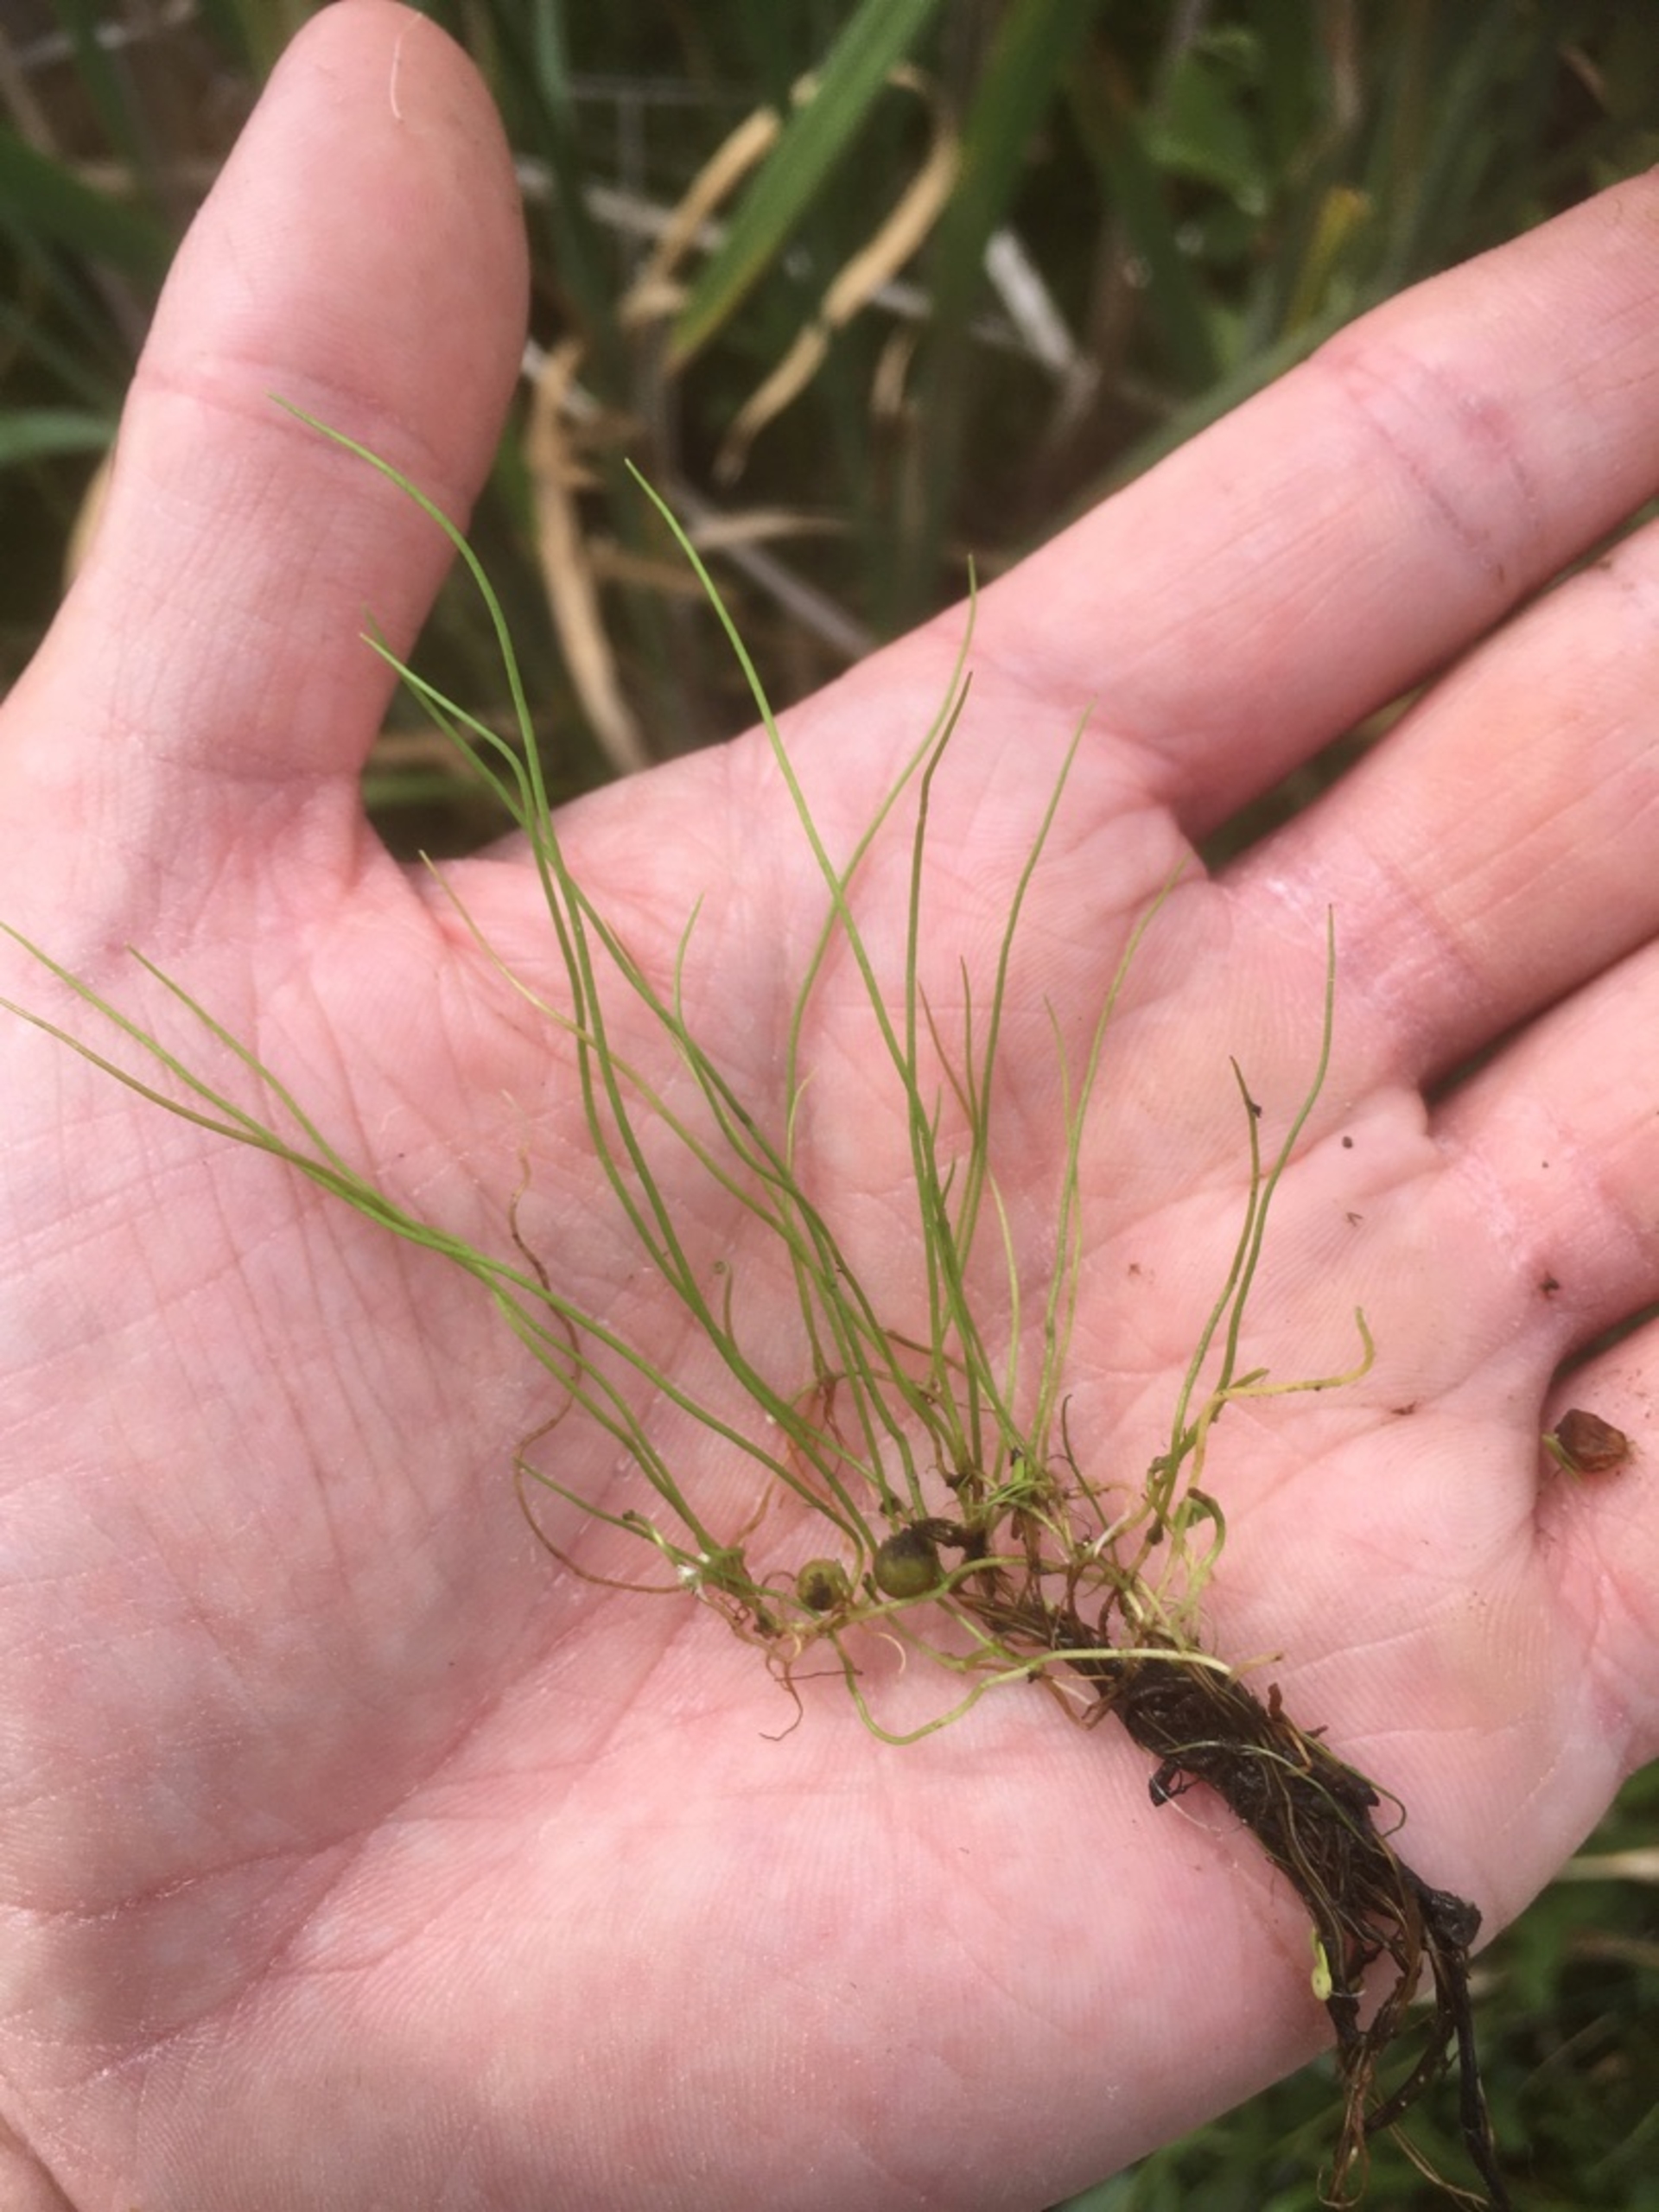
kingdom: Plantae
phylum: Tracheophyta
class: Polypodiopsida
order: Salviniales
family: Marsileaceae
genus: Pilularia
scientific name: Pilularia globulifera
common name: Pilledrager
